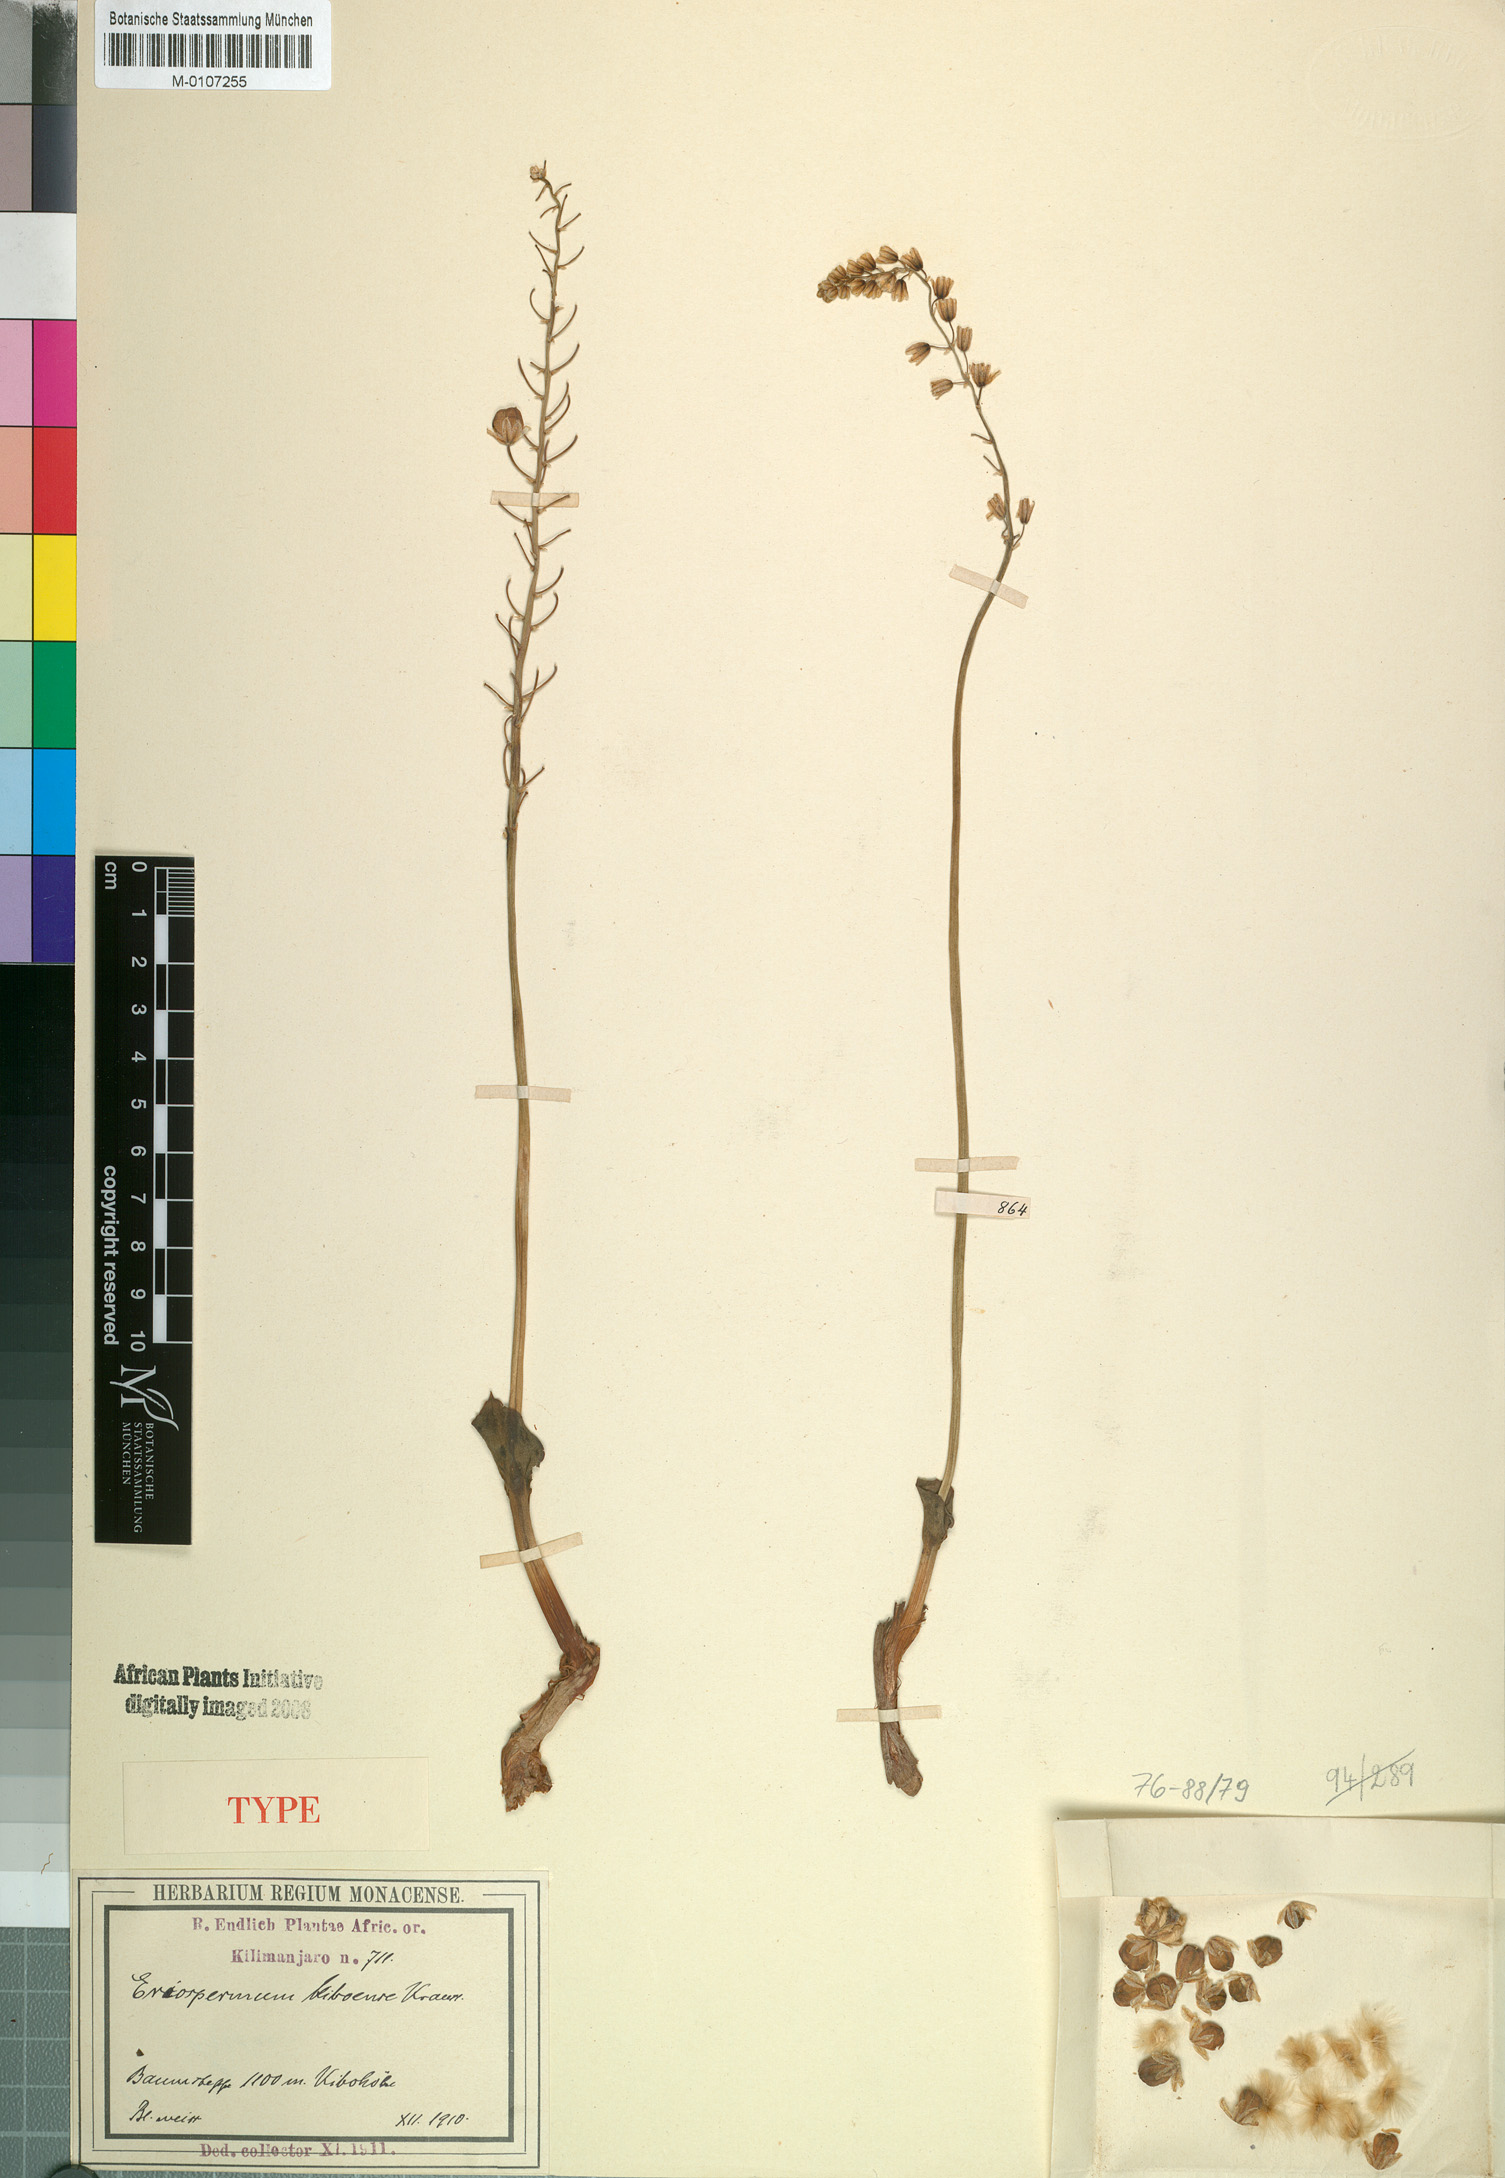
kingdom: Plantae
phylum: Tracheophyta
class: Liliopsida
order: Asparagales
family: Asparagaceae
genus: Eriospermum
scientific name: Eriospermum kiboense
